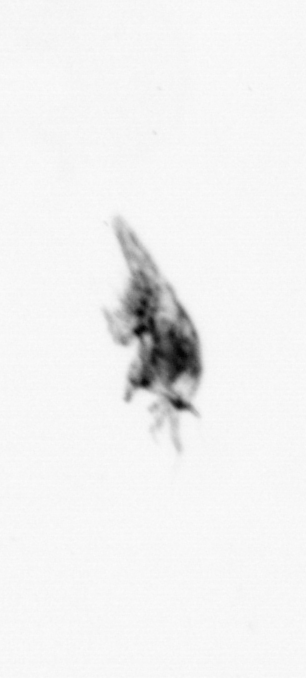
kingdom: Animalia
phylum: Arthropoda
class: Copepoda
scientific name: Copepoda
